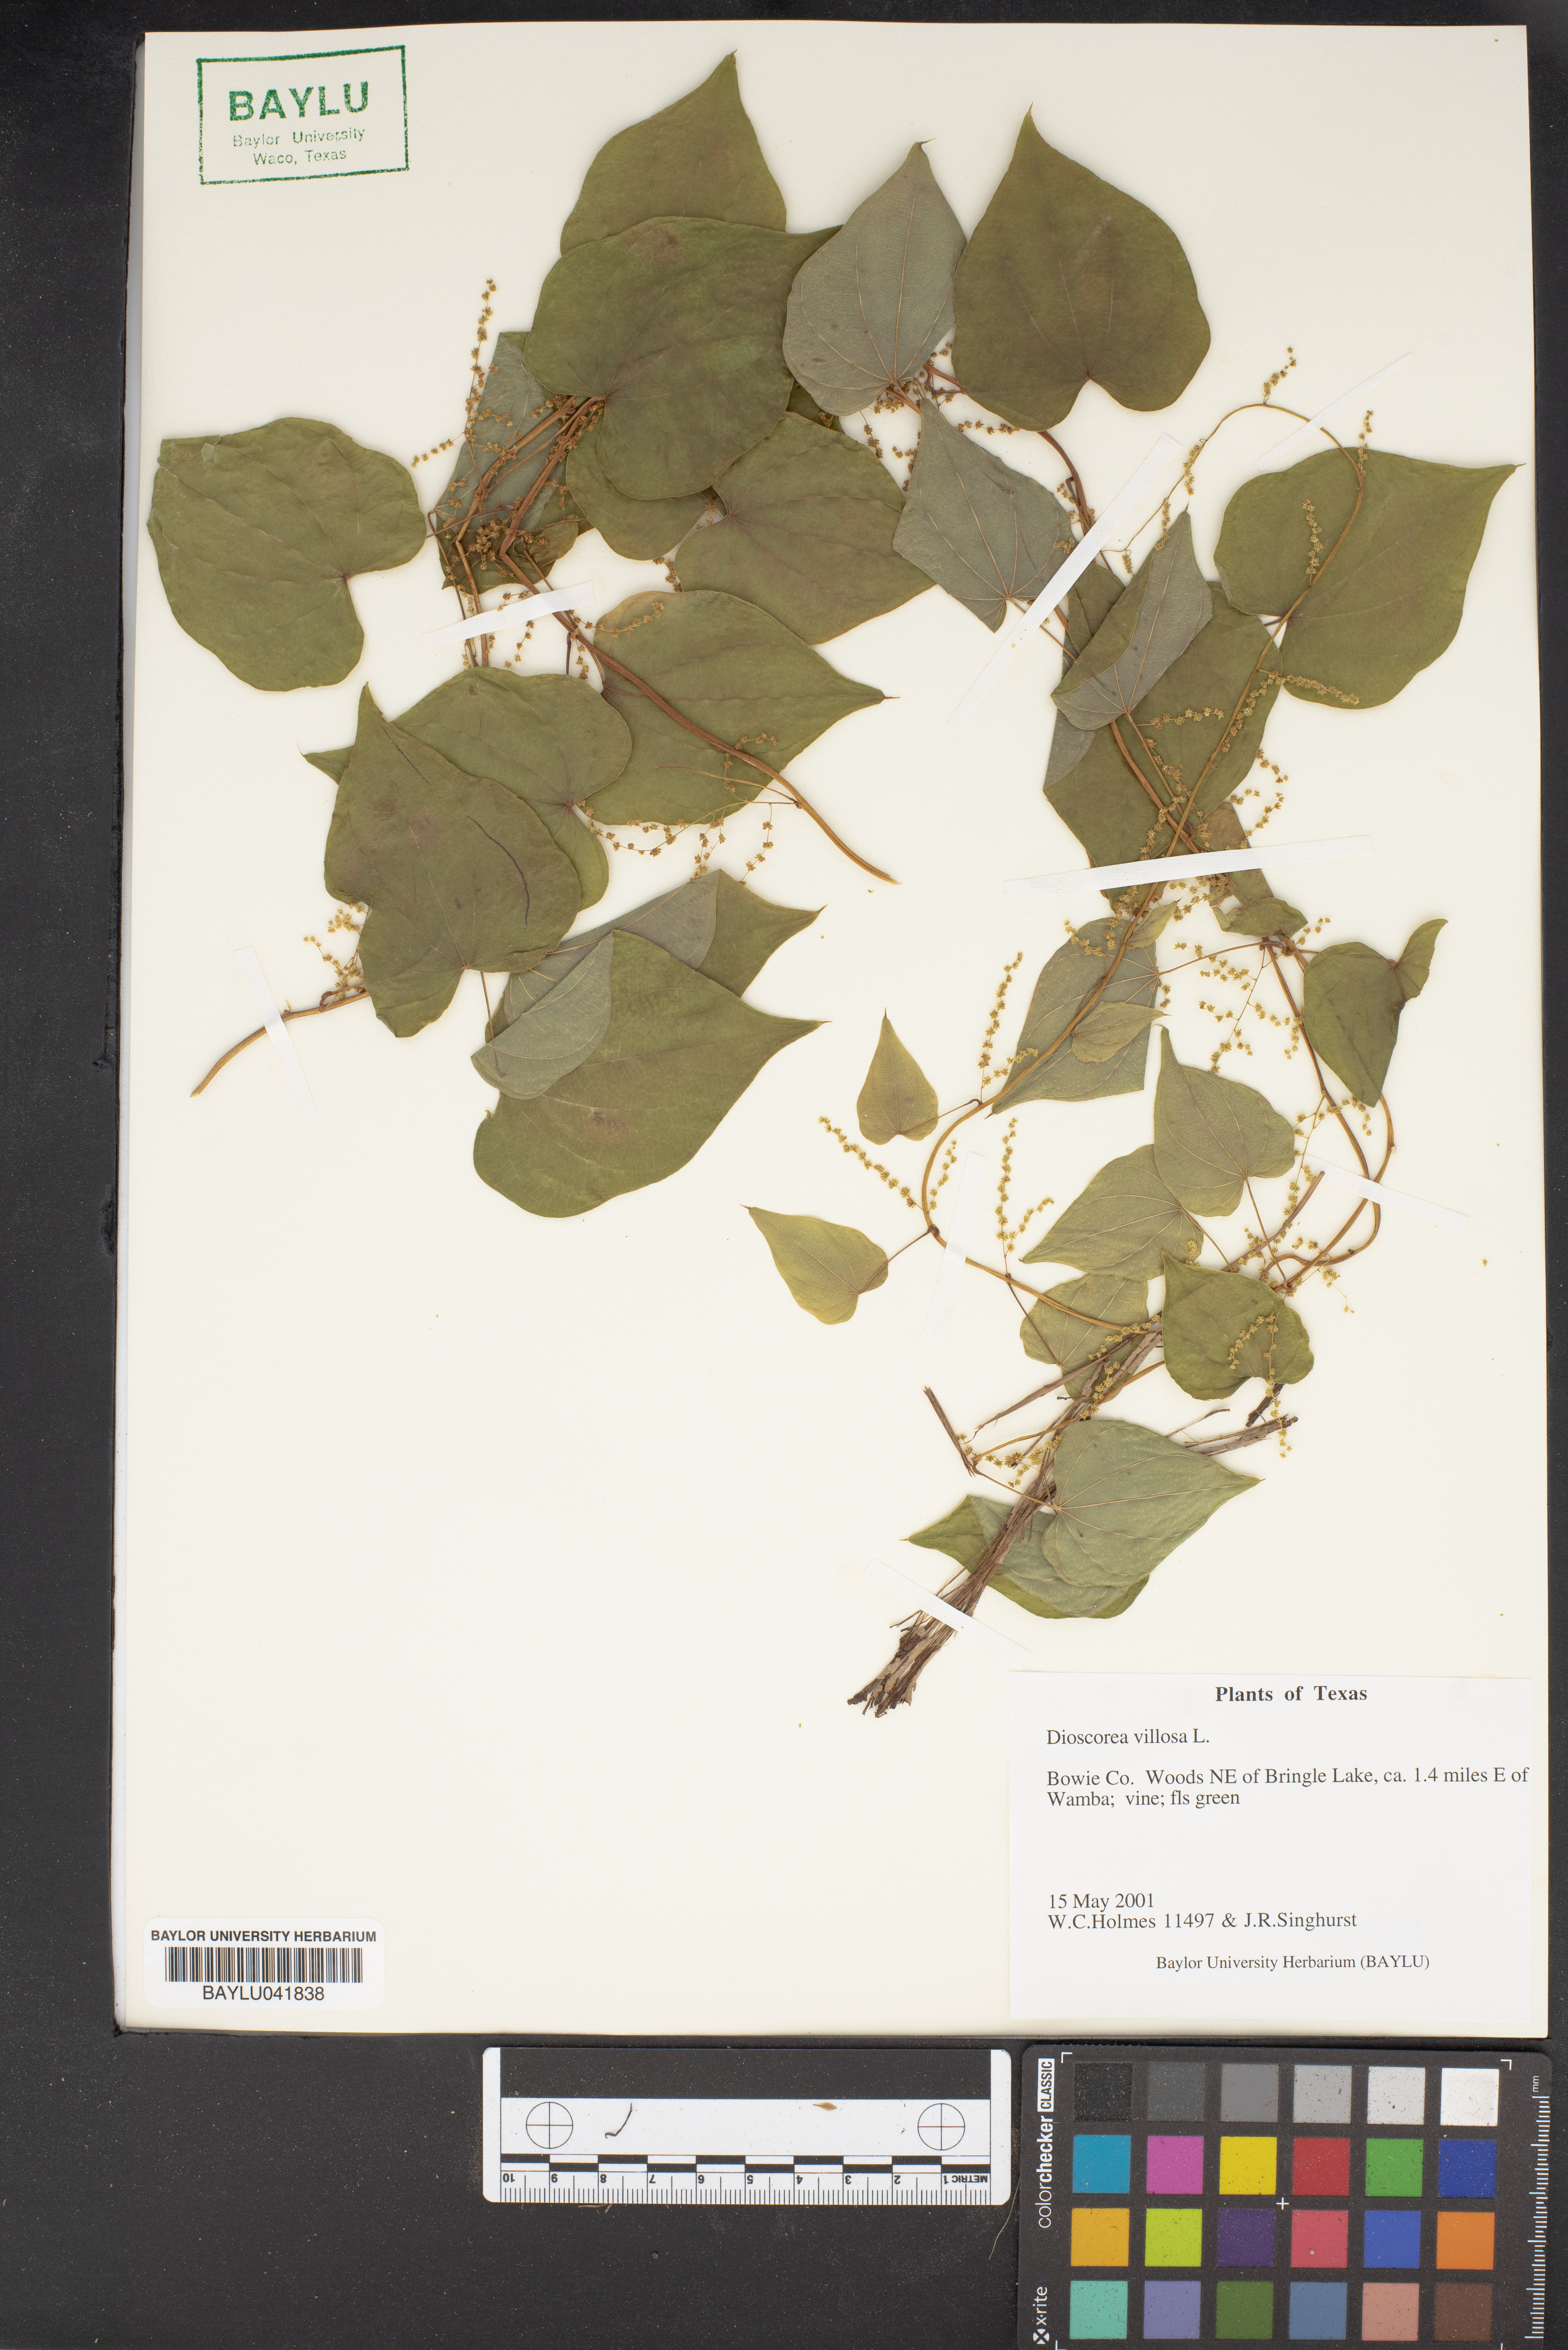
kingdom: Plantae
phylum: Tracheophyta
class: Liliopsida
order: Dioscoreales
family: Dioscoreaceae
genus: Dioscorea
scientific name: Dioscorea villosa
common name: Wild yam
